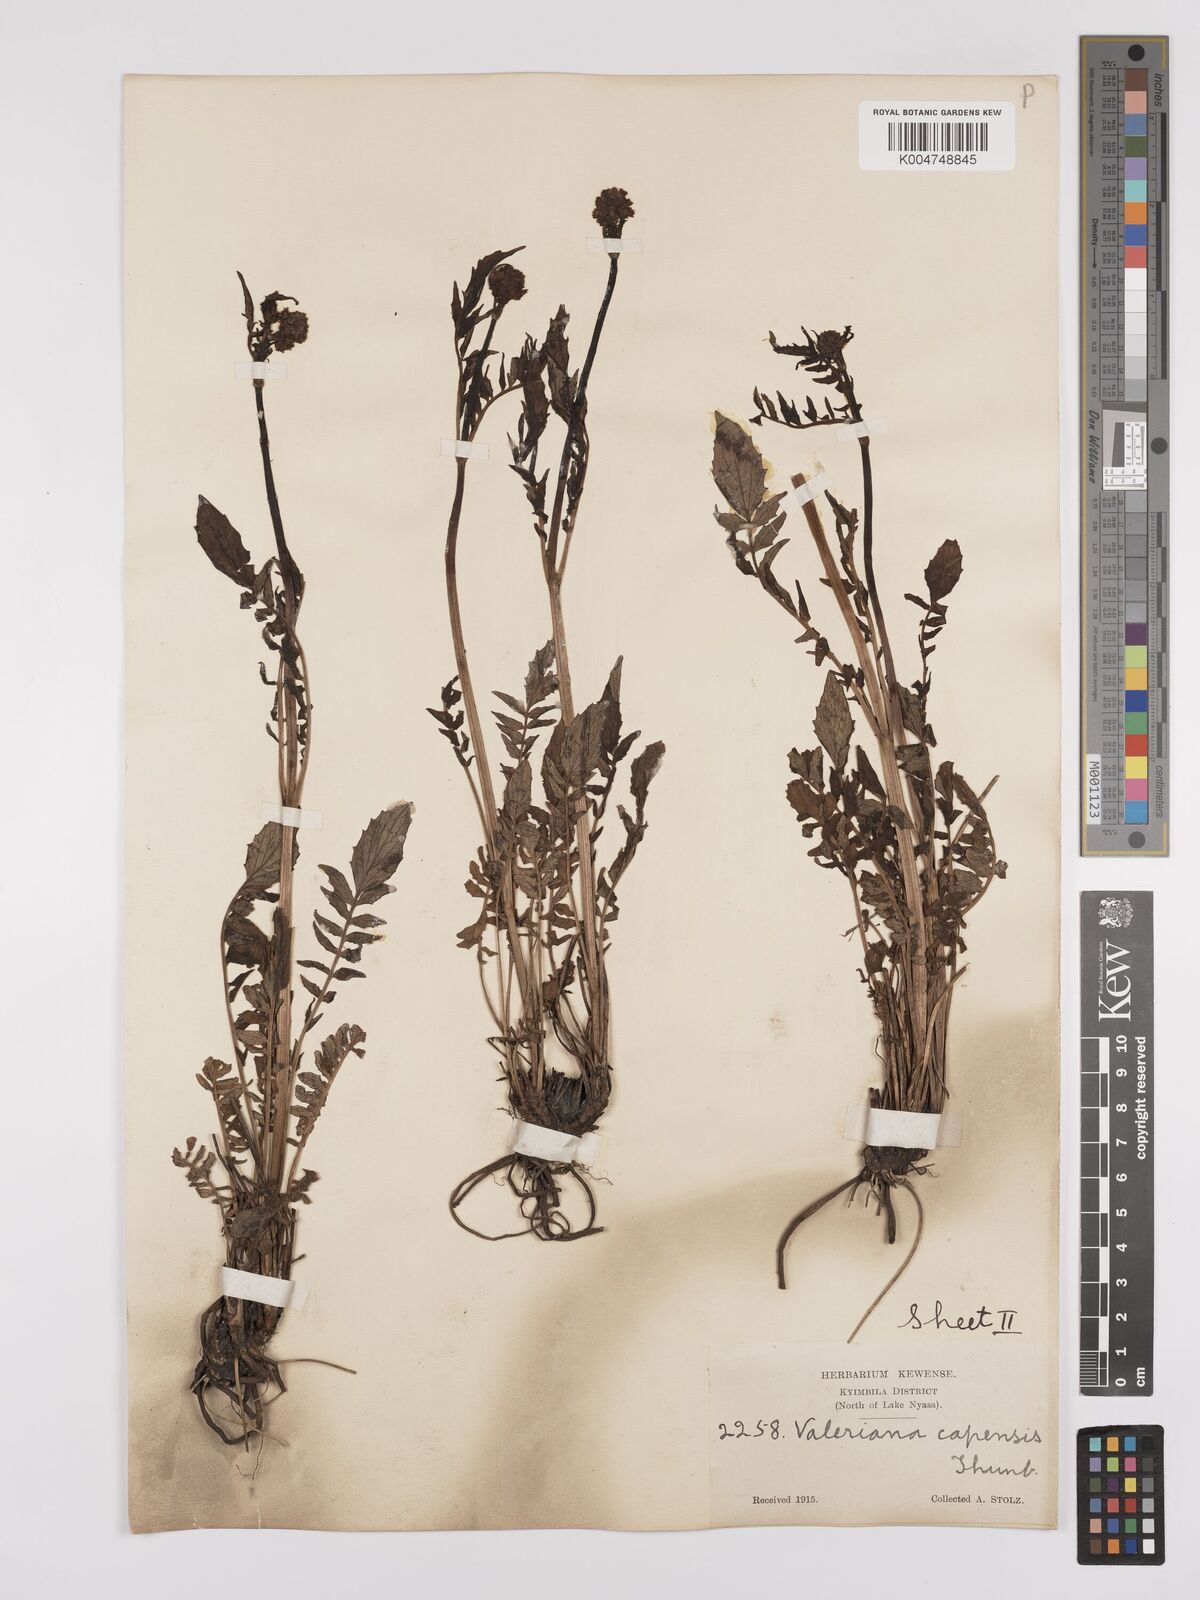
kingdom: Plantae
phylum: Tracheophyta
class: Magnoliopsida
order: Dipsacales
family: Caprifoliaceae
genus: Valeriana
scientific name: Valeriana capensis
